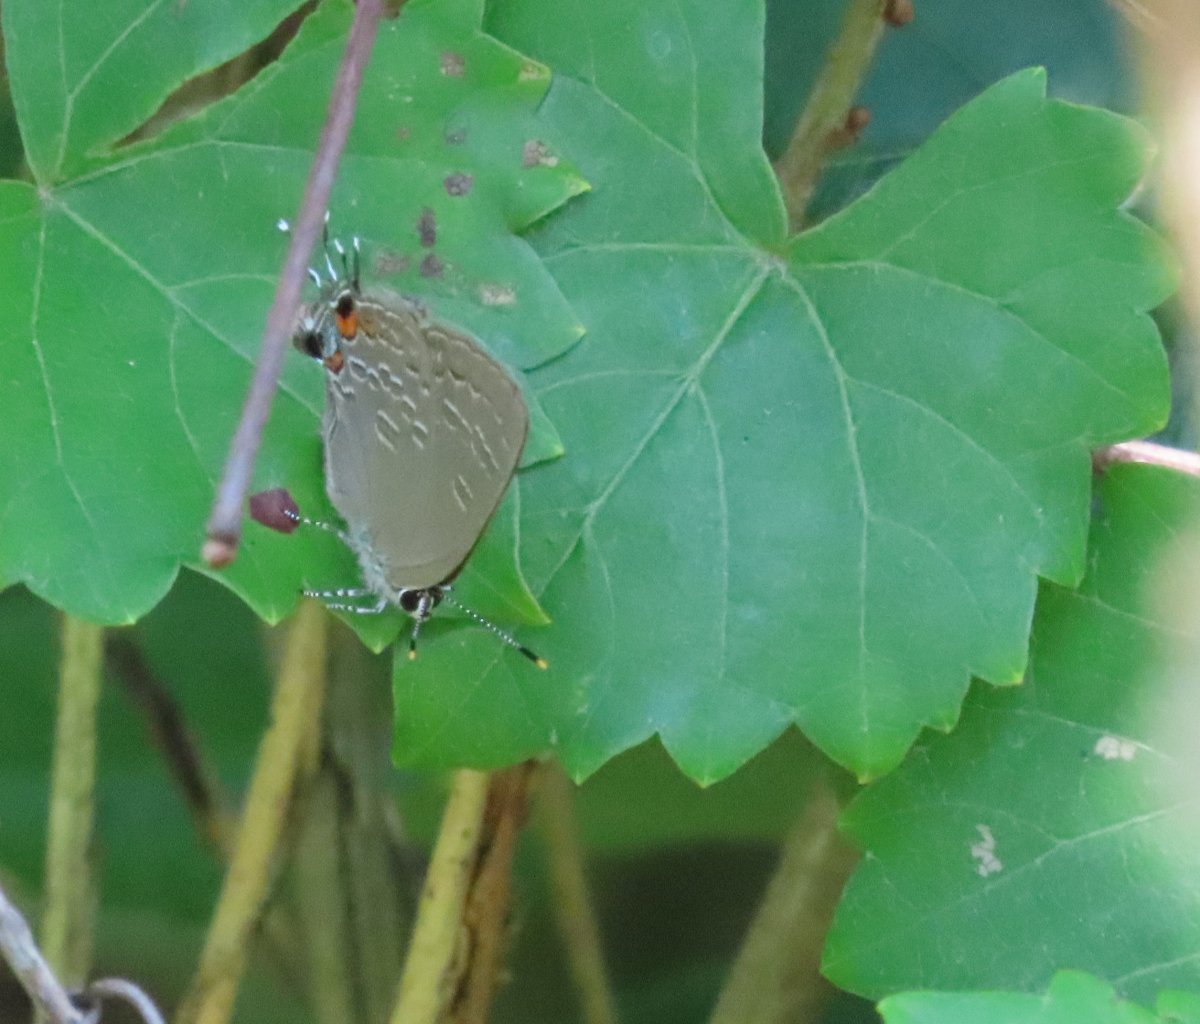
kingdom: Animalia
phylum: Arthropoda
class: Insecta
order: Lepidoptera
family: Lycaenidae
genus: Strymon
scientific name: Strymon kingi
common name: King's Hairstreak
